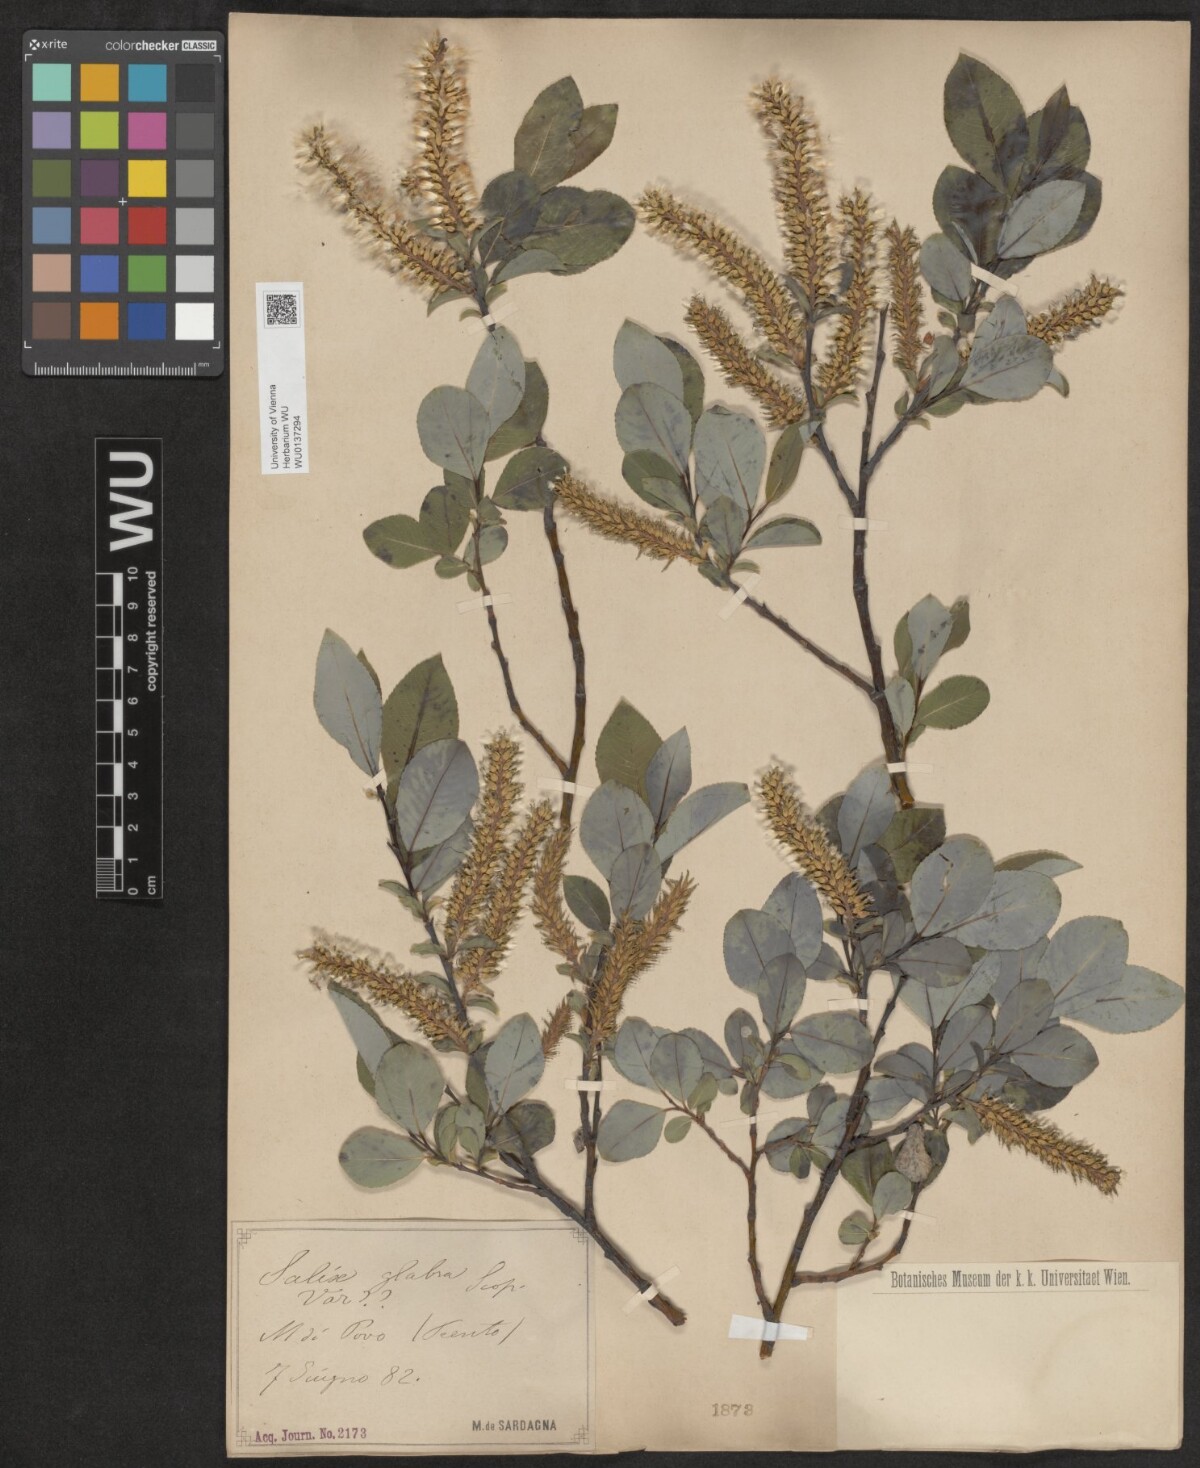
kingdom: Plantae
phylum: Tracheophyta
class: Magnoliopsida
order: Malpighiales
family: Salicaceae
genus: Salix
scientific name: Salix glabra
